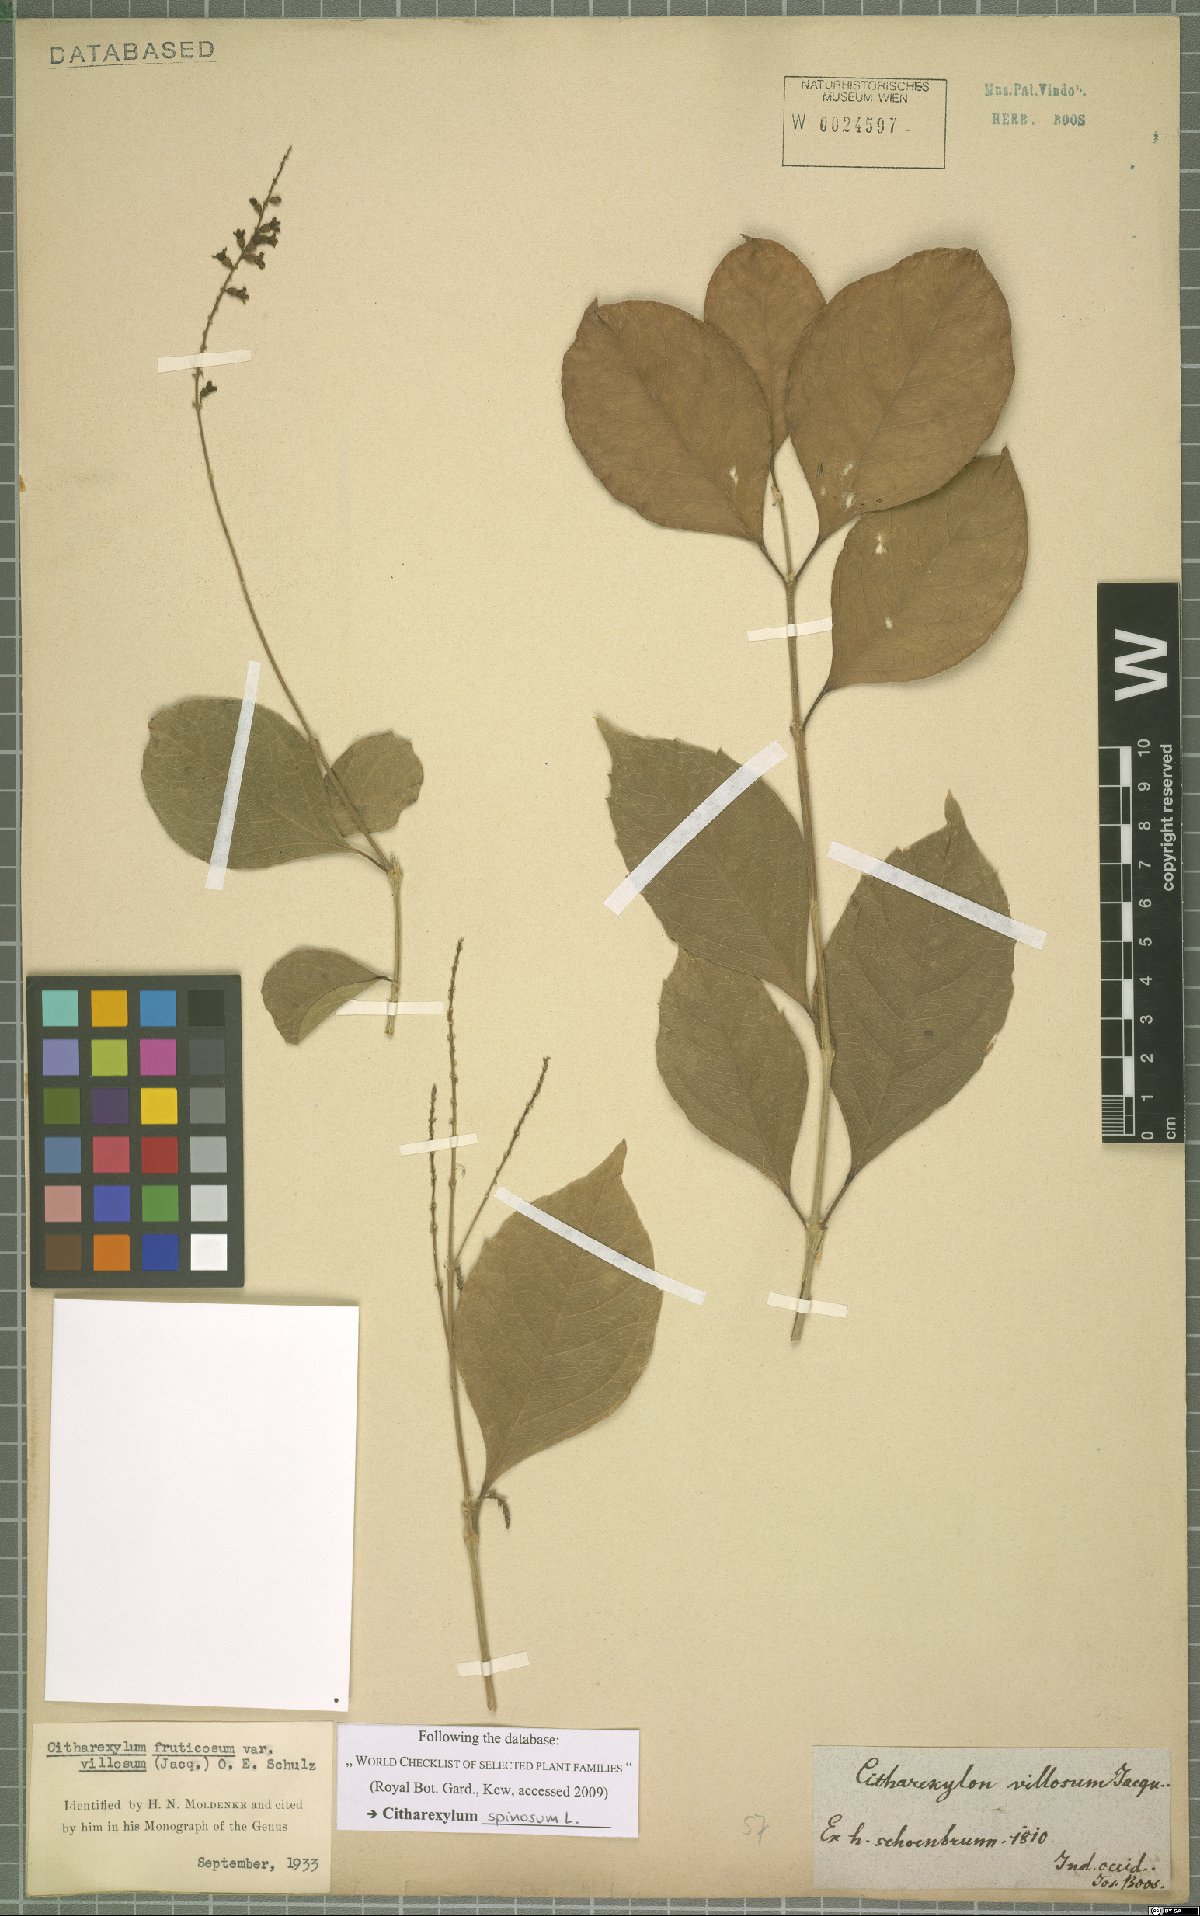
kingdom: Plantae
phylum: Tracheophyta
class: Magnoliopsida
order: Lamiales
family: Verbenaceae
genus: Citharexylum
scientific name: Citharexylum spinosum
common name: Fiddlewood
